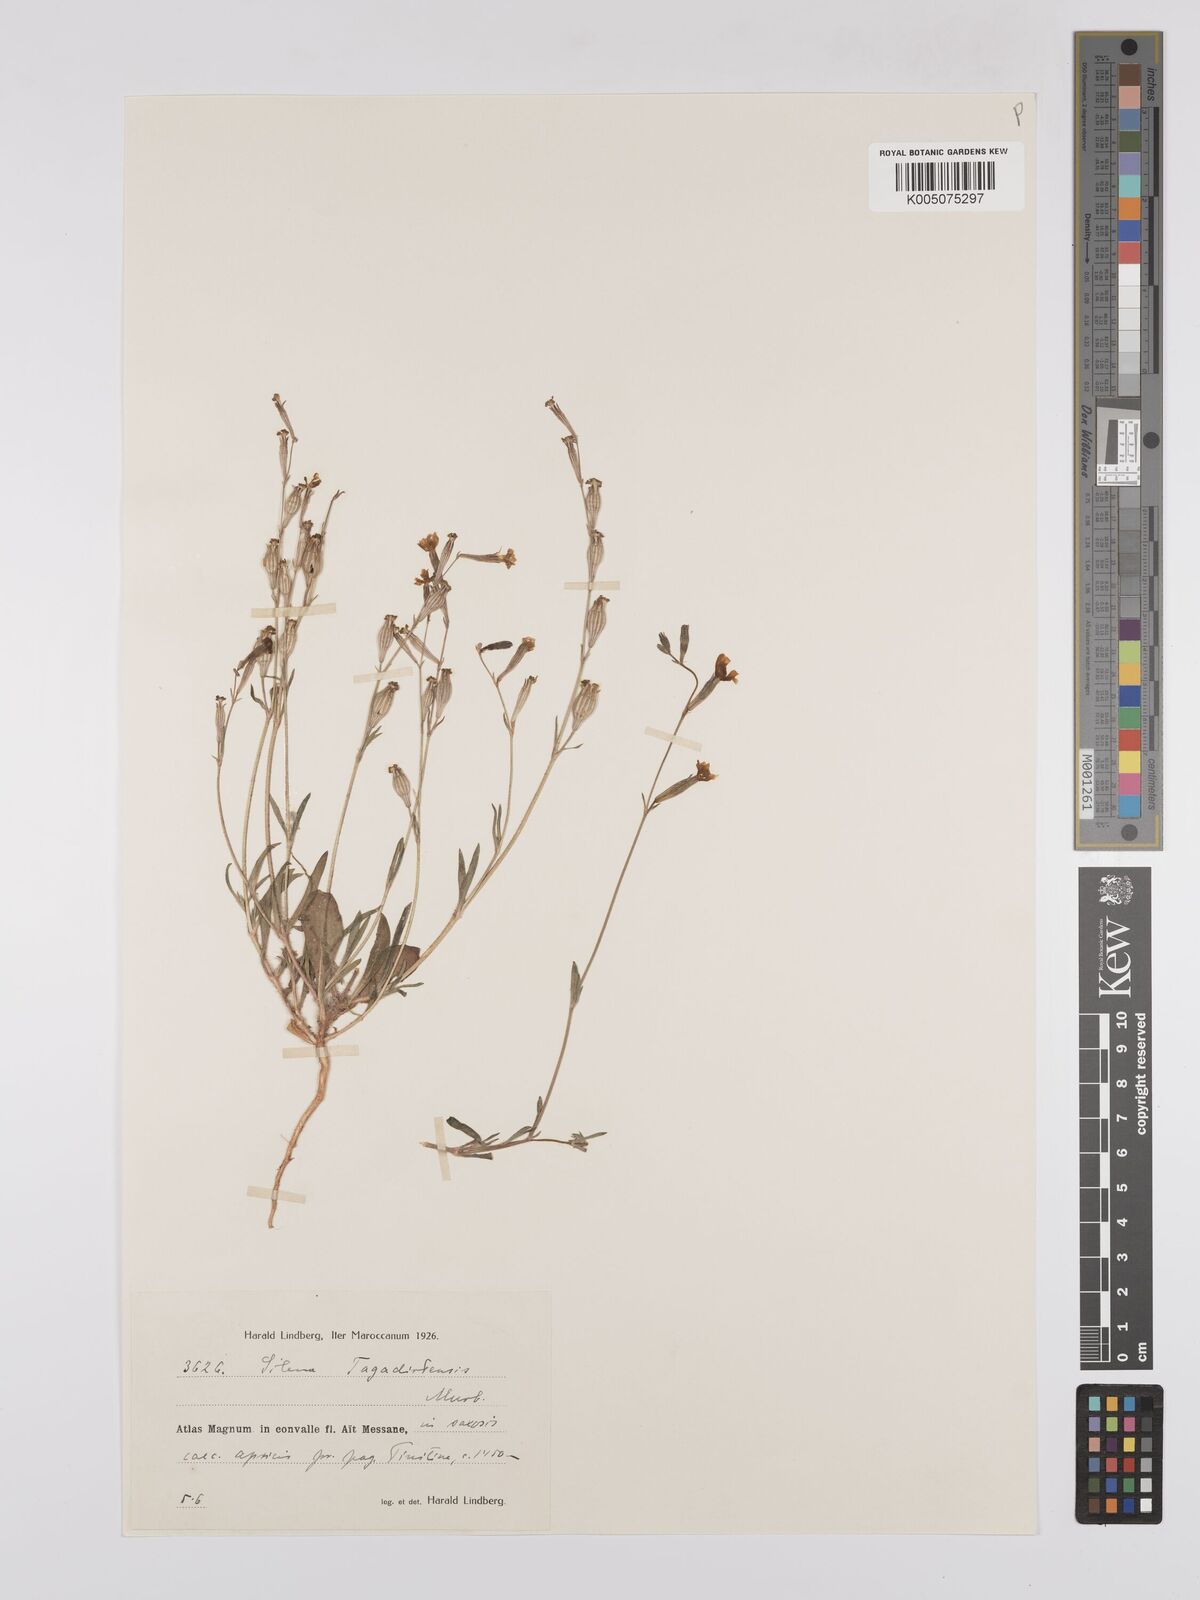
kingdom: Plantae
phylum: Tracheophyta
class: Magnoliopsida
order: Caryophyllales
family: Caryophyllaceae
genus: Silene
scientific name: Silene pomelii
